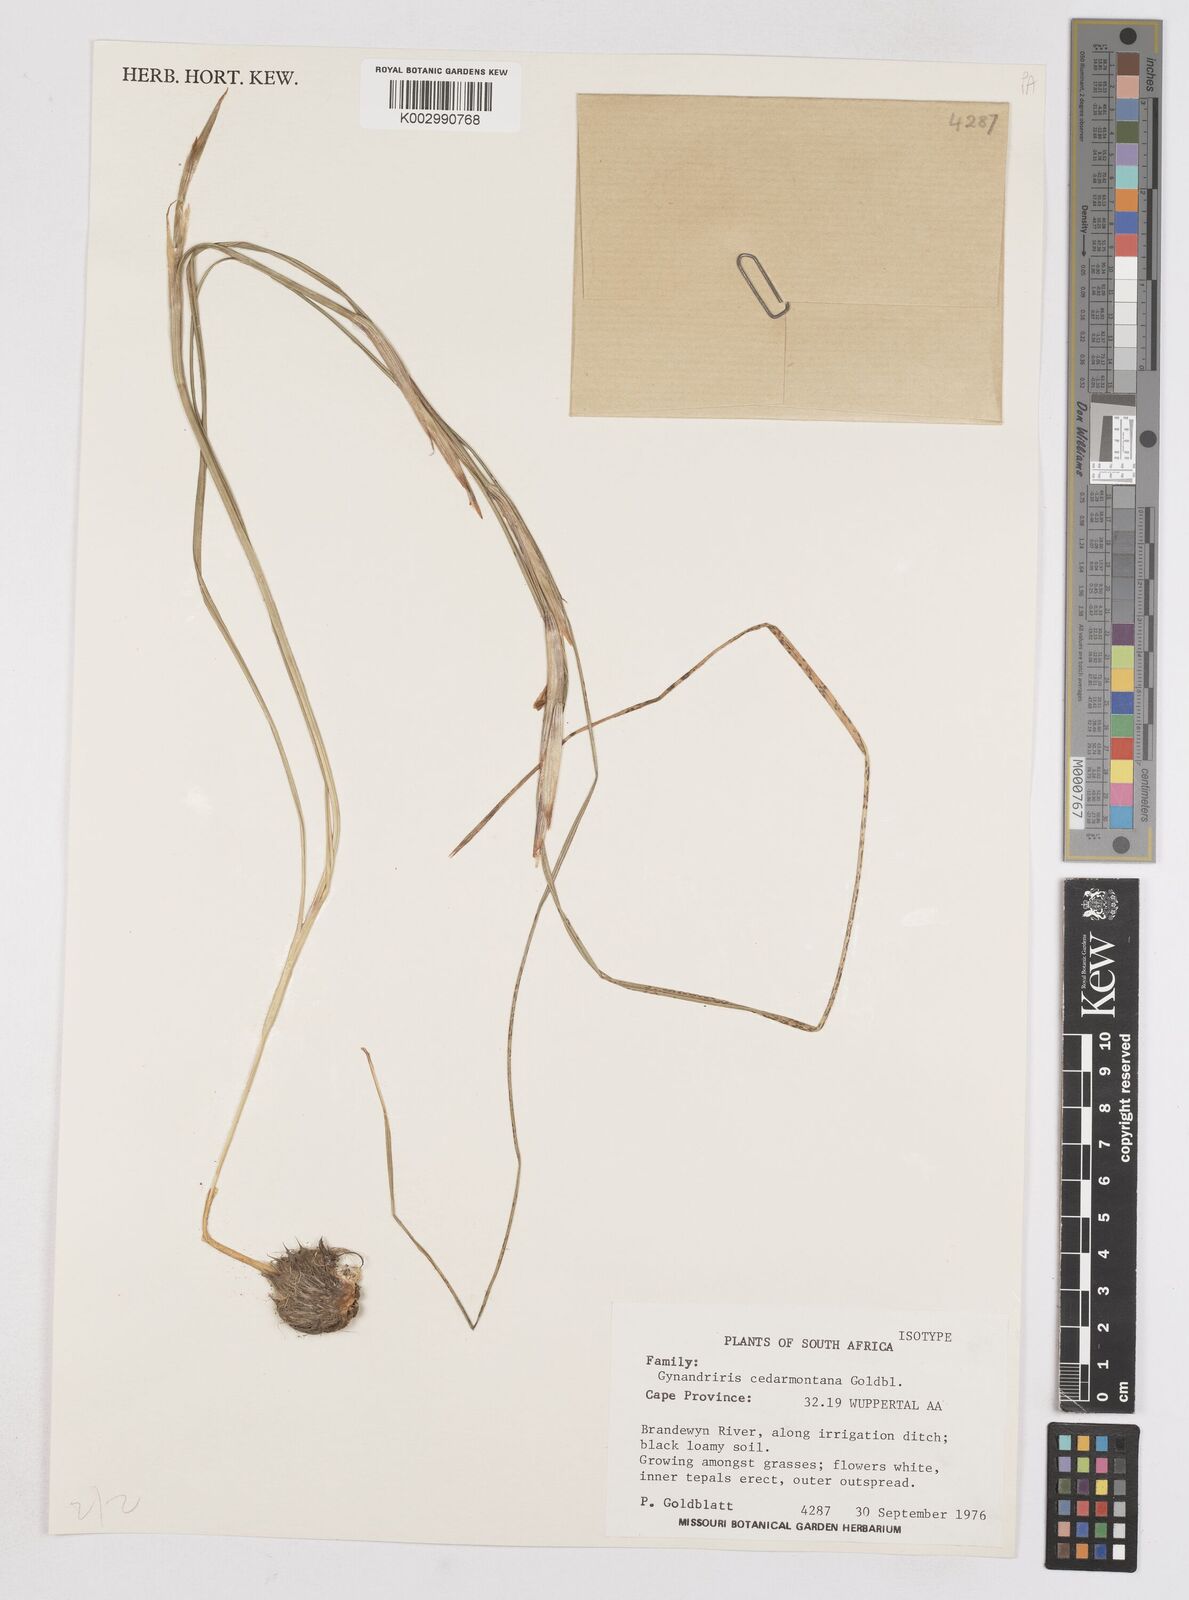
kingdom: Plantae
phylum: Tracheophyta
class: Liliopsida
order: Asparagales
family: Iridaceae
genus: Moraea
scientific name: Moraea cedarmontana
